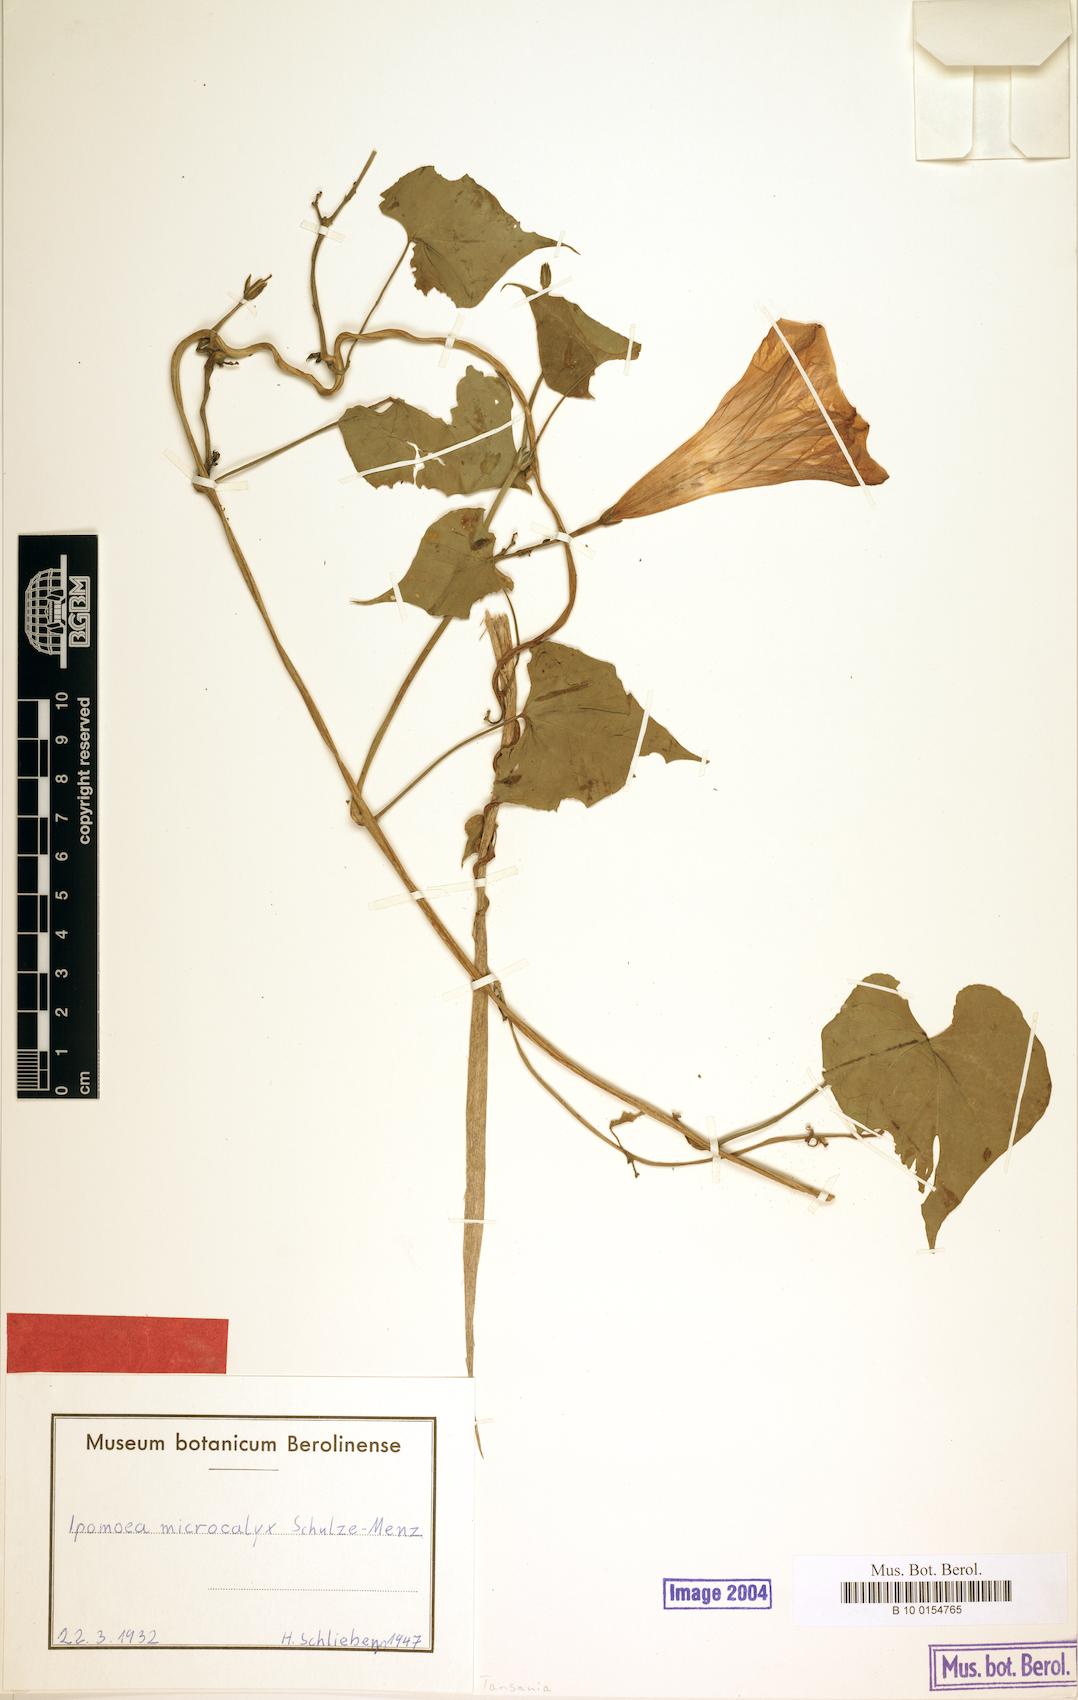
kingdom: Plantae
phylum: Tracheophyta
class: Magnoliopsida
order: Solanales
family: Convolvulaceae
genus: Ipomoea
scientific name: Ipomoea microcalyx
